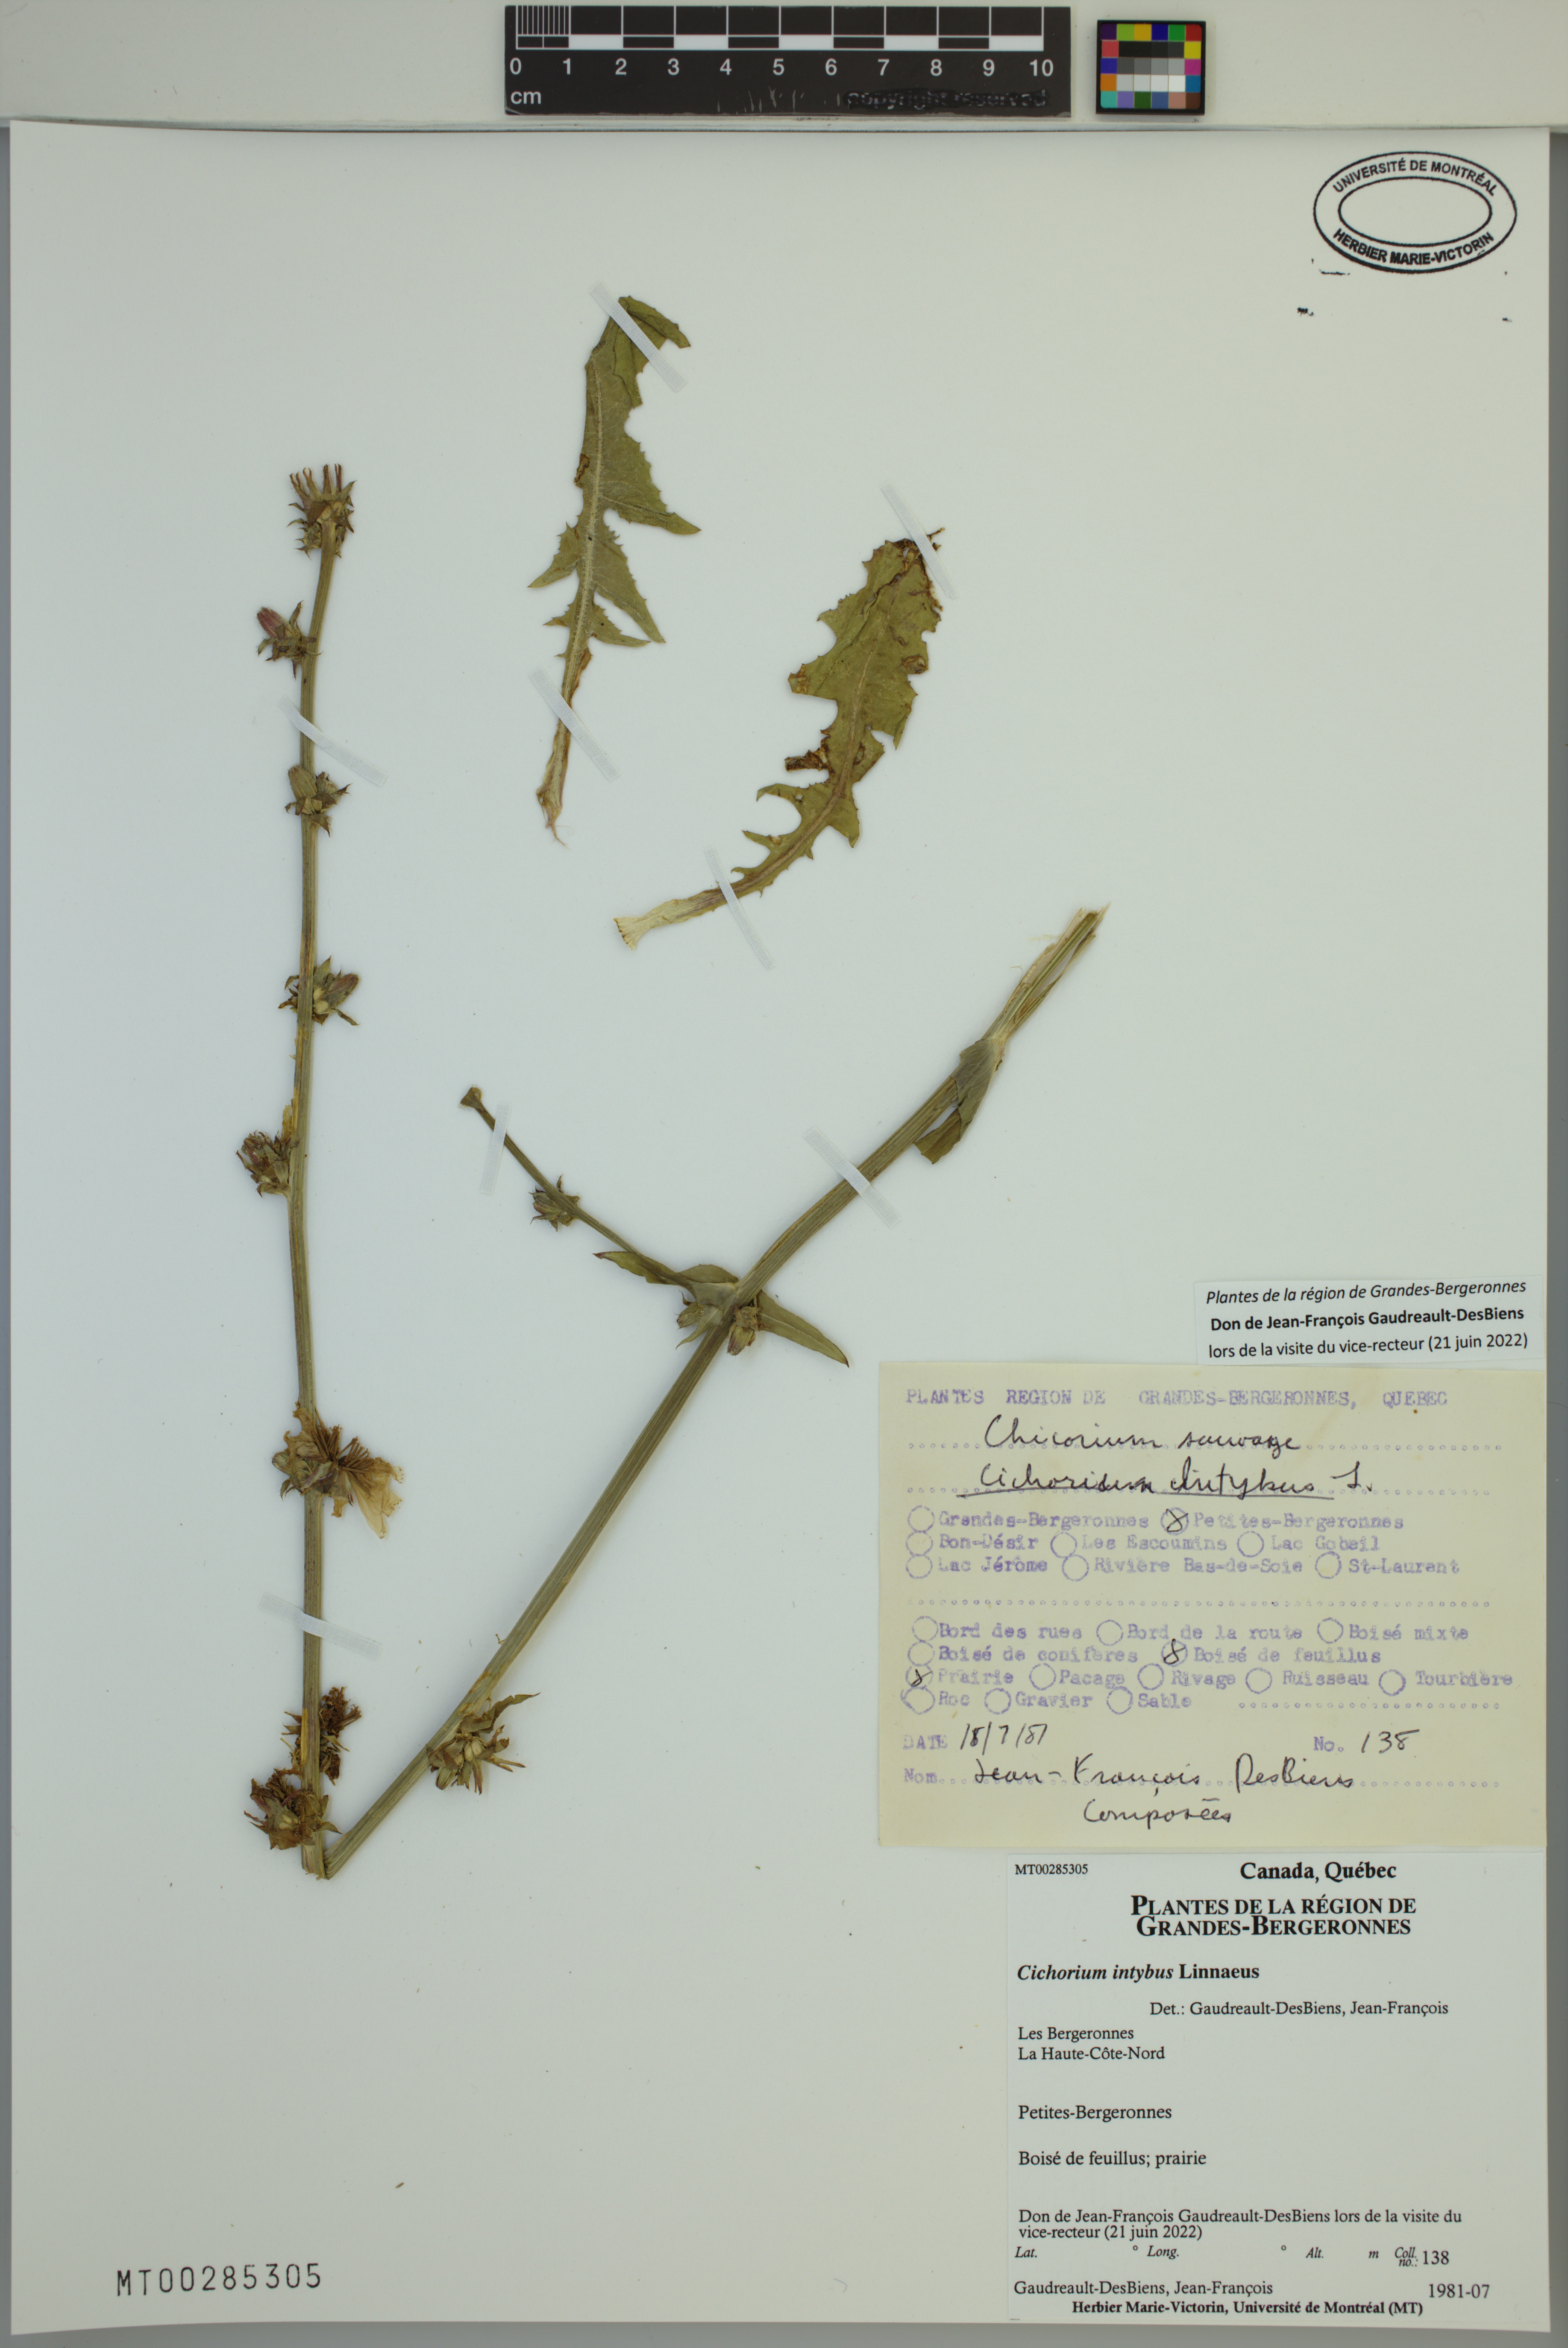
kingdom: Plantae
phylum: Tracheophyta
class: Magnoliopsida
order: Asterales
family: Asteraceae
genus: Cichorium
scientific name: Cichorium intybus
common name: Chicory
